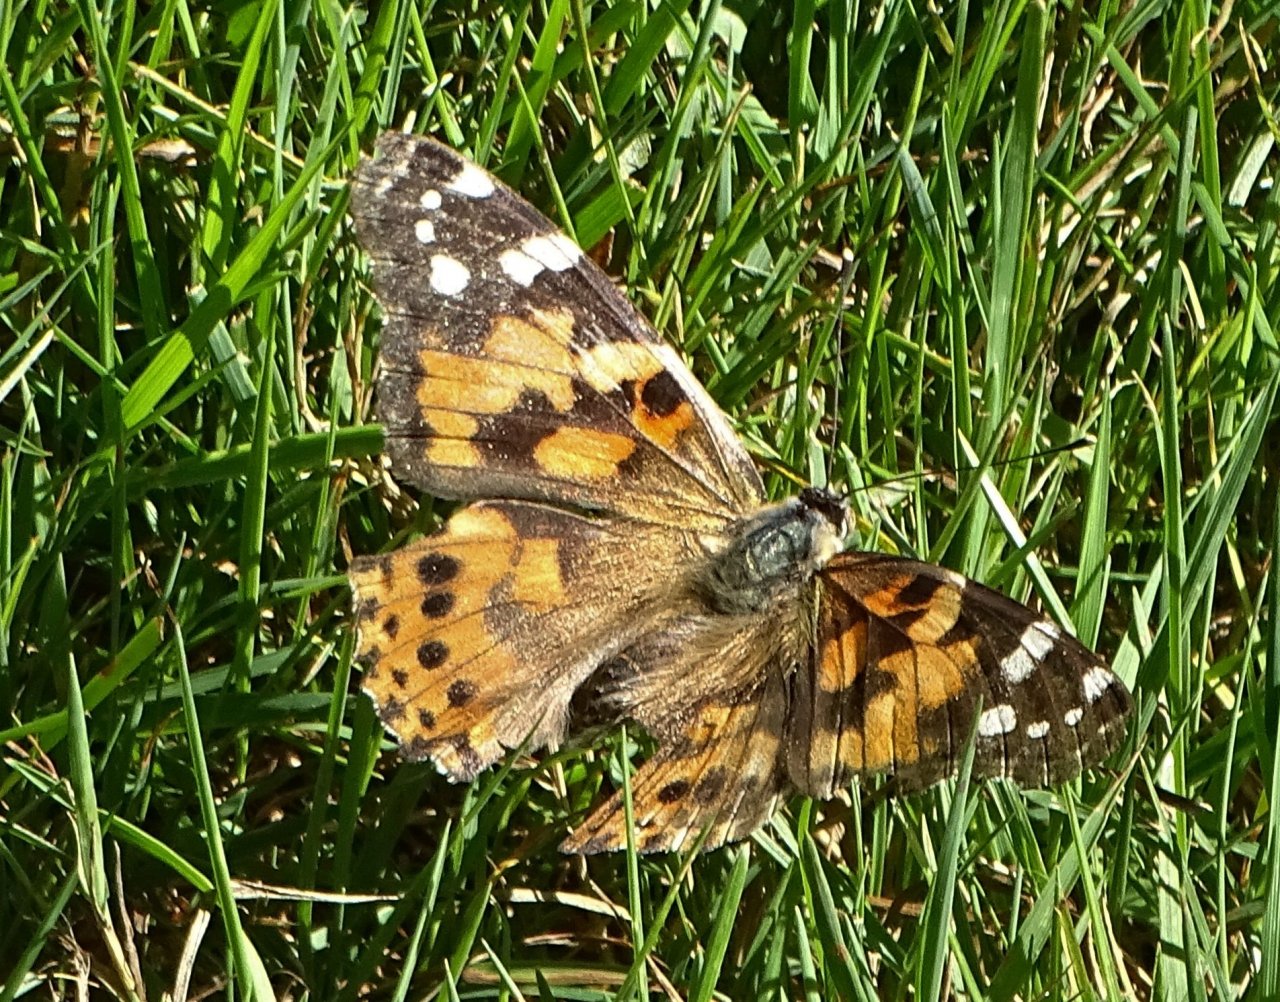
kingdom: Animalia
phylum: Arthropoda
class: Insecta
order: Lepidoptera
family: Nymphalidae
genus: Vanessa
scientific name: Vanessa cardui
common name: Painted Lady
